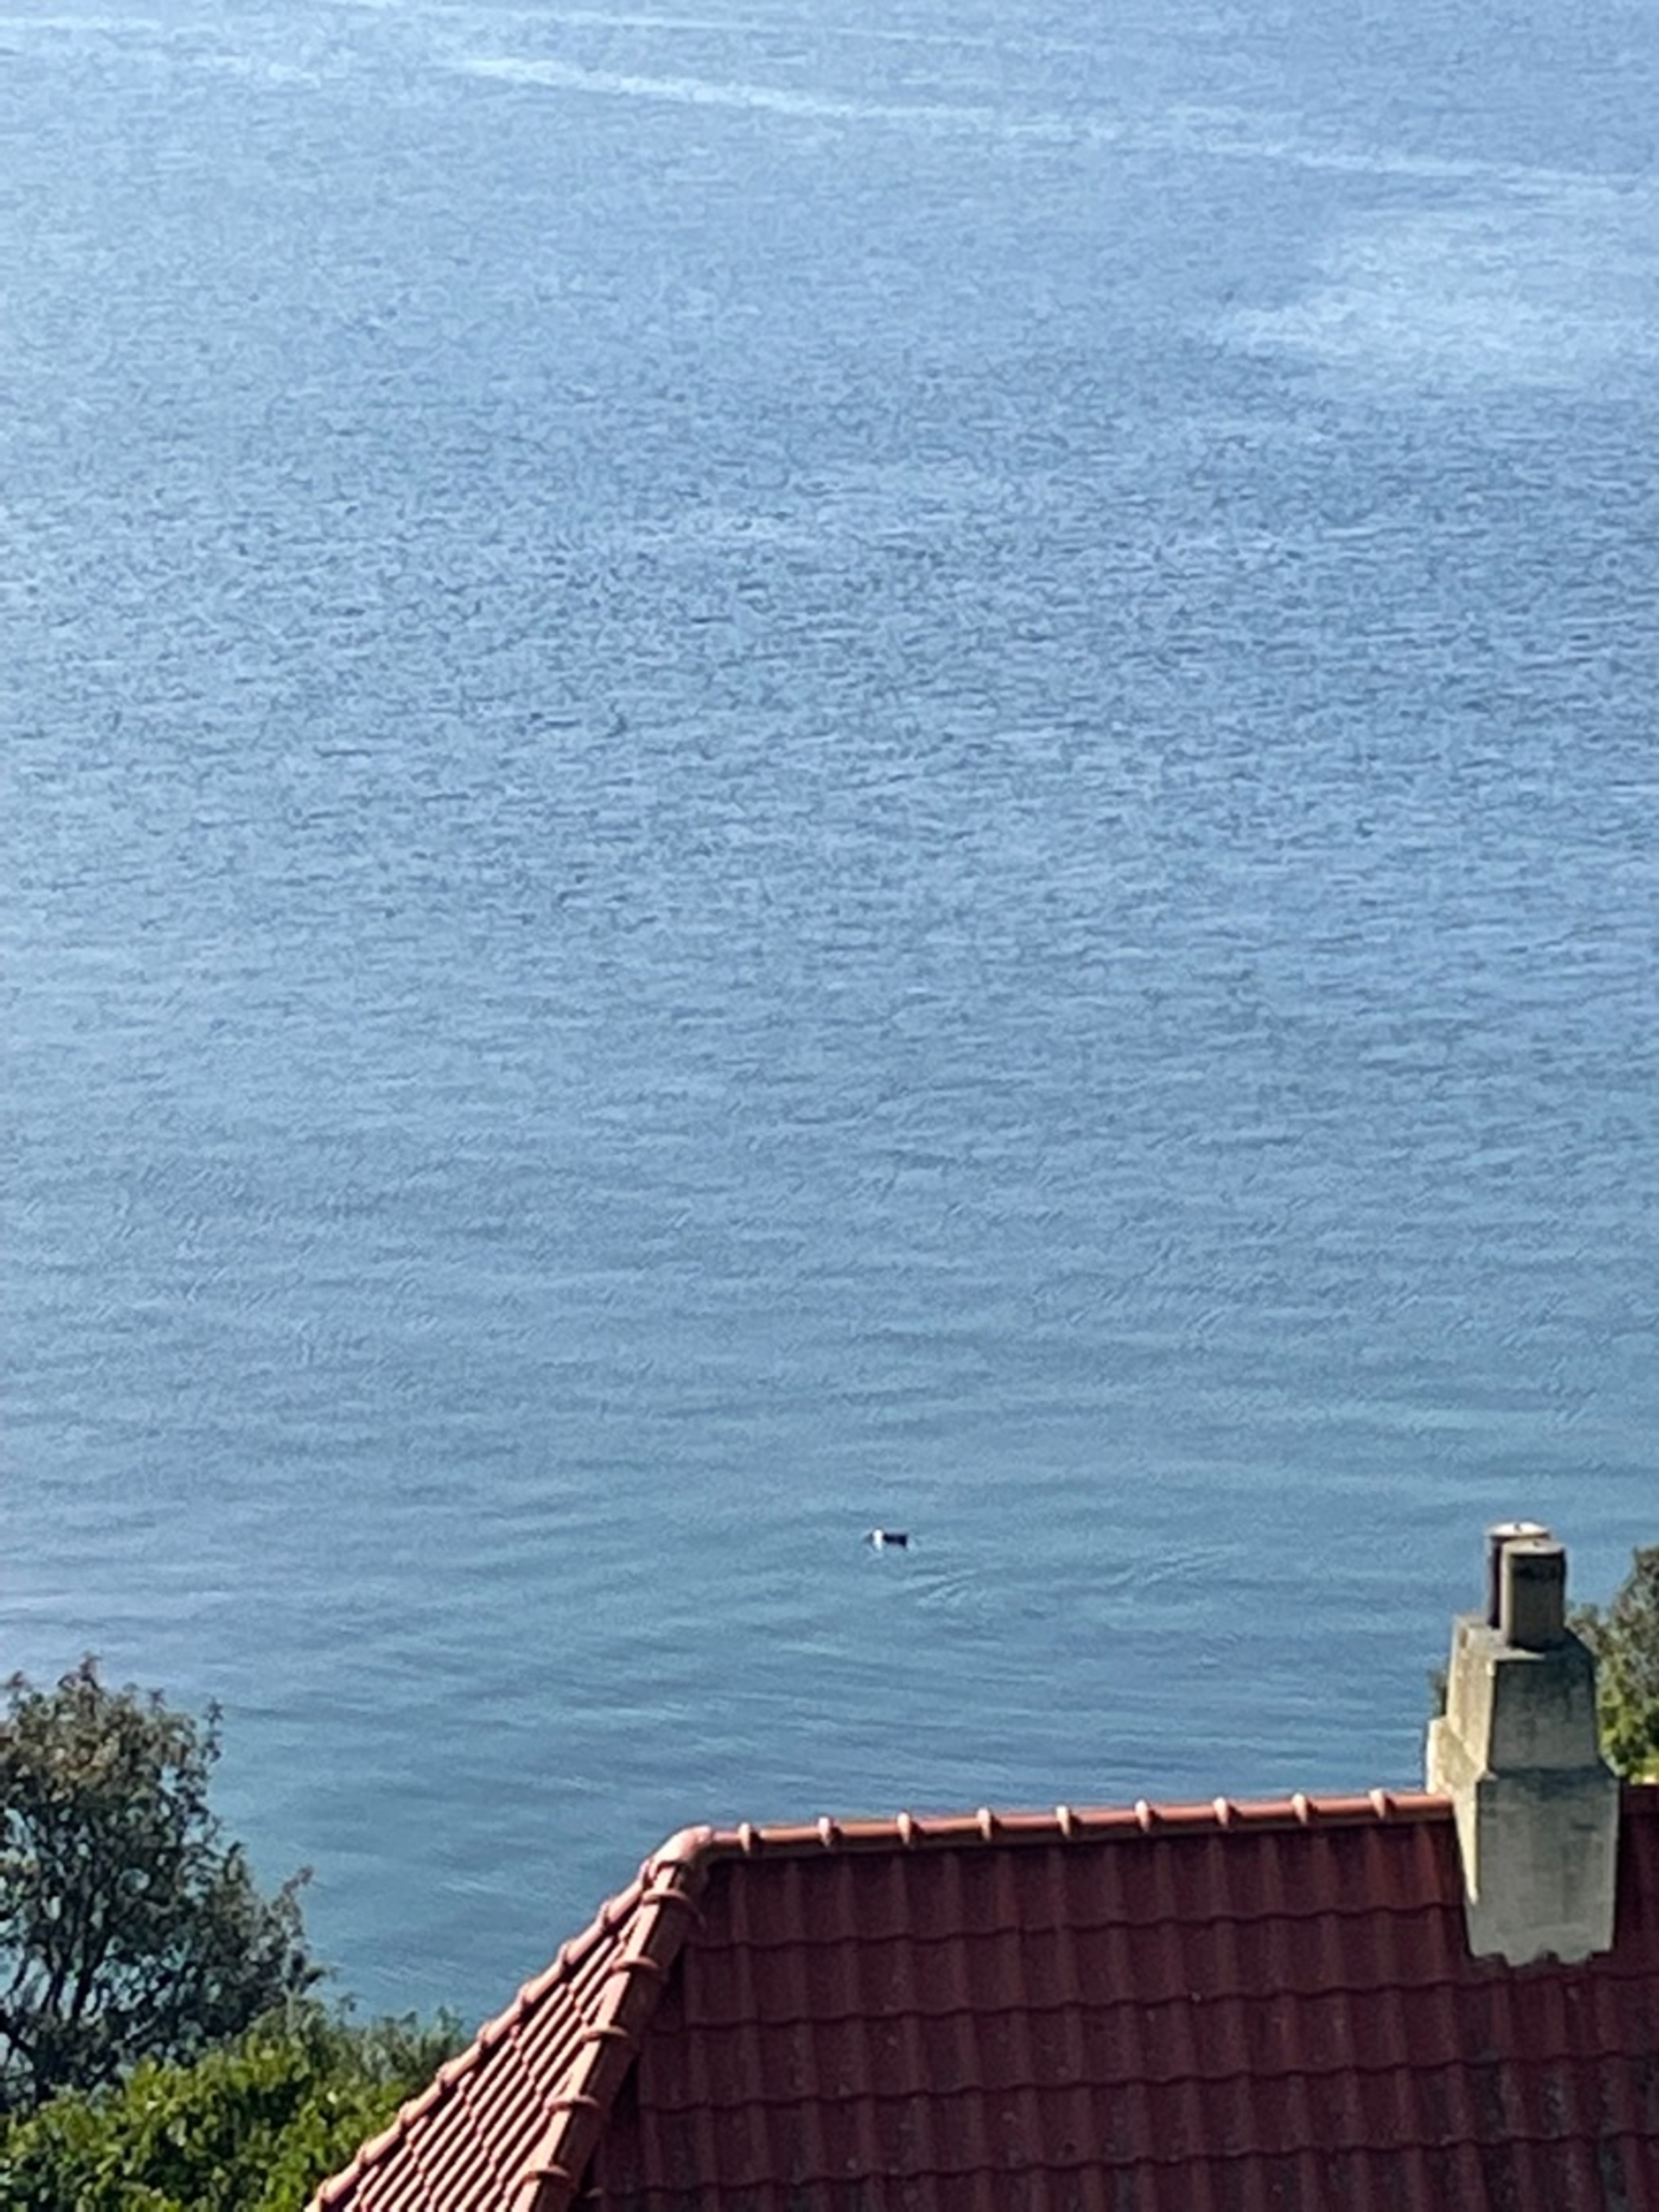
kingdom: Animalia
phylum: Chordata
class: Mammalia
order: Cetacea
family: Phocoenidae
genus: Phocoena
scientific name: Phocoena phocoena
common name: Marsvin
